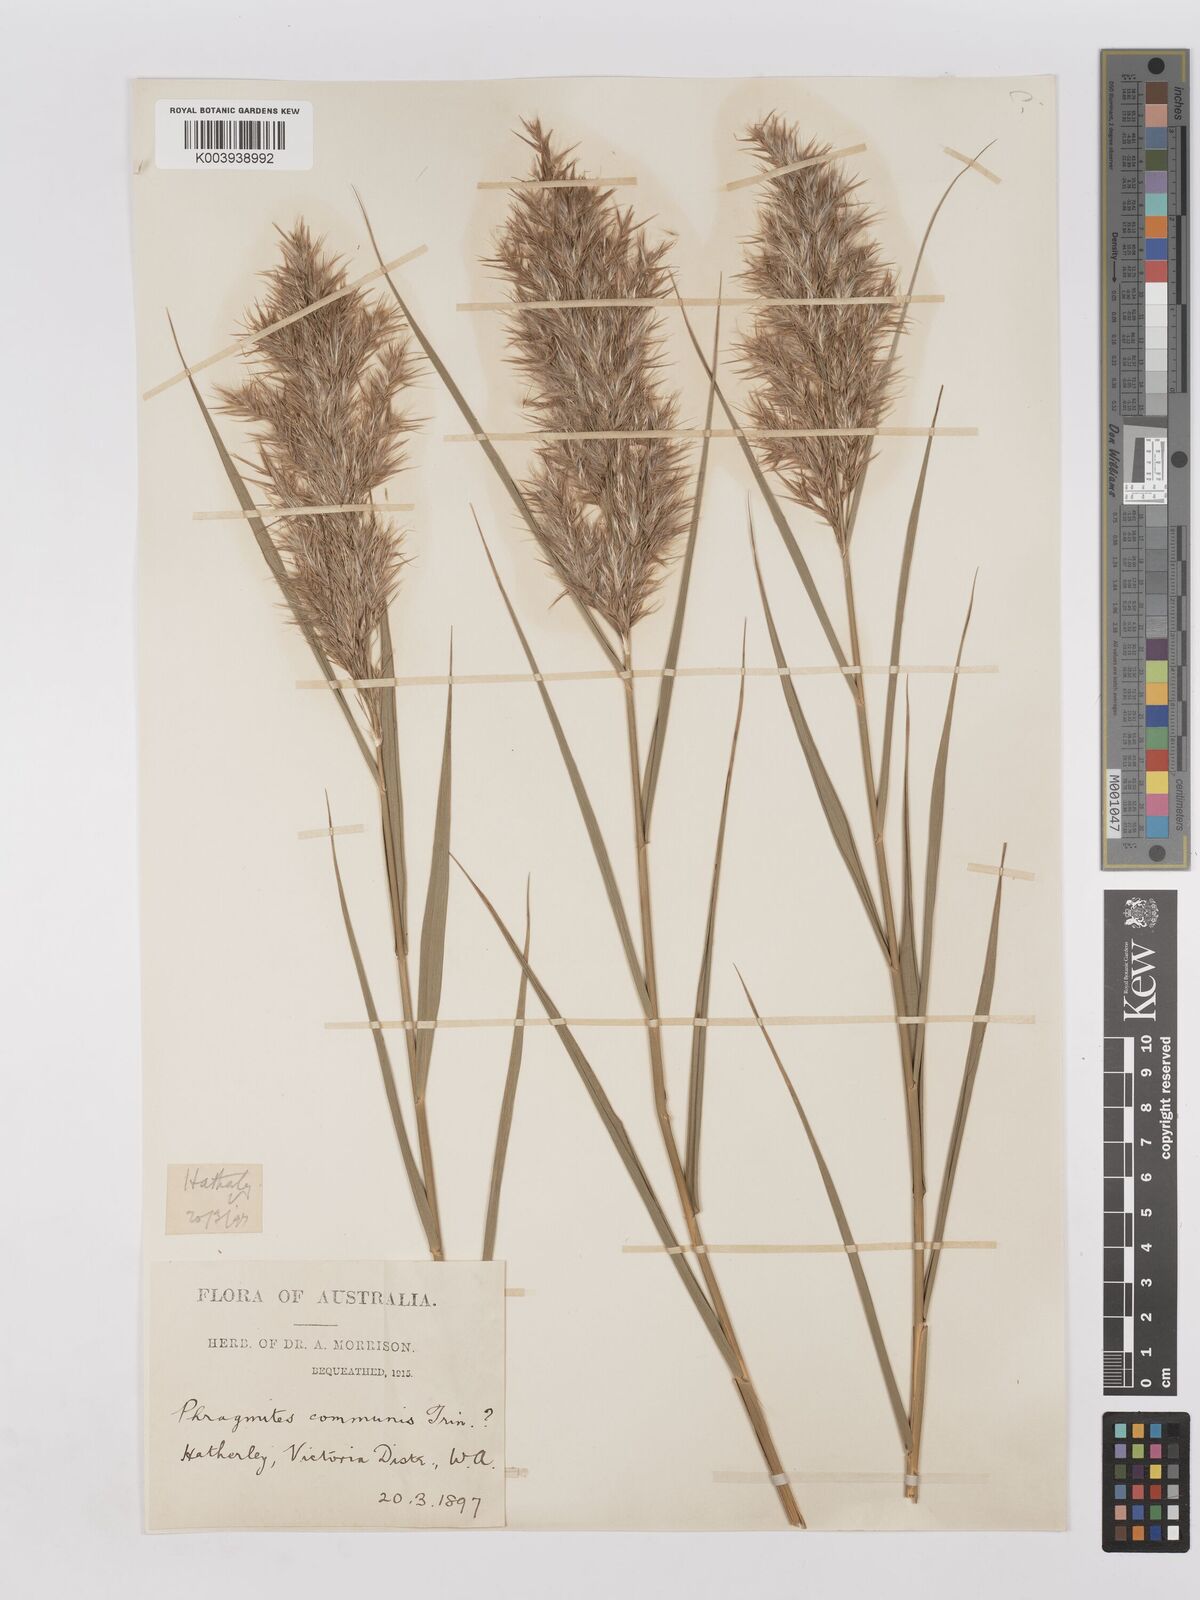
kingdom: Plantae
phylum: Tracheophyta
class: Liliopsida
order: Poales
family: Poaceae
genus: Phragmites
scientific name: Phragmites australis
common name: Common reed
